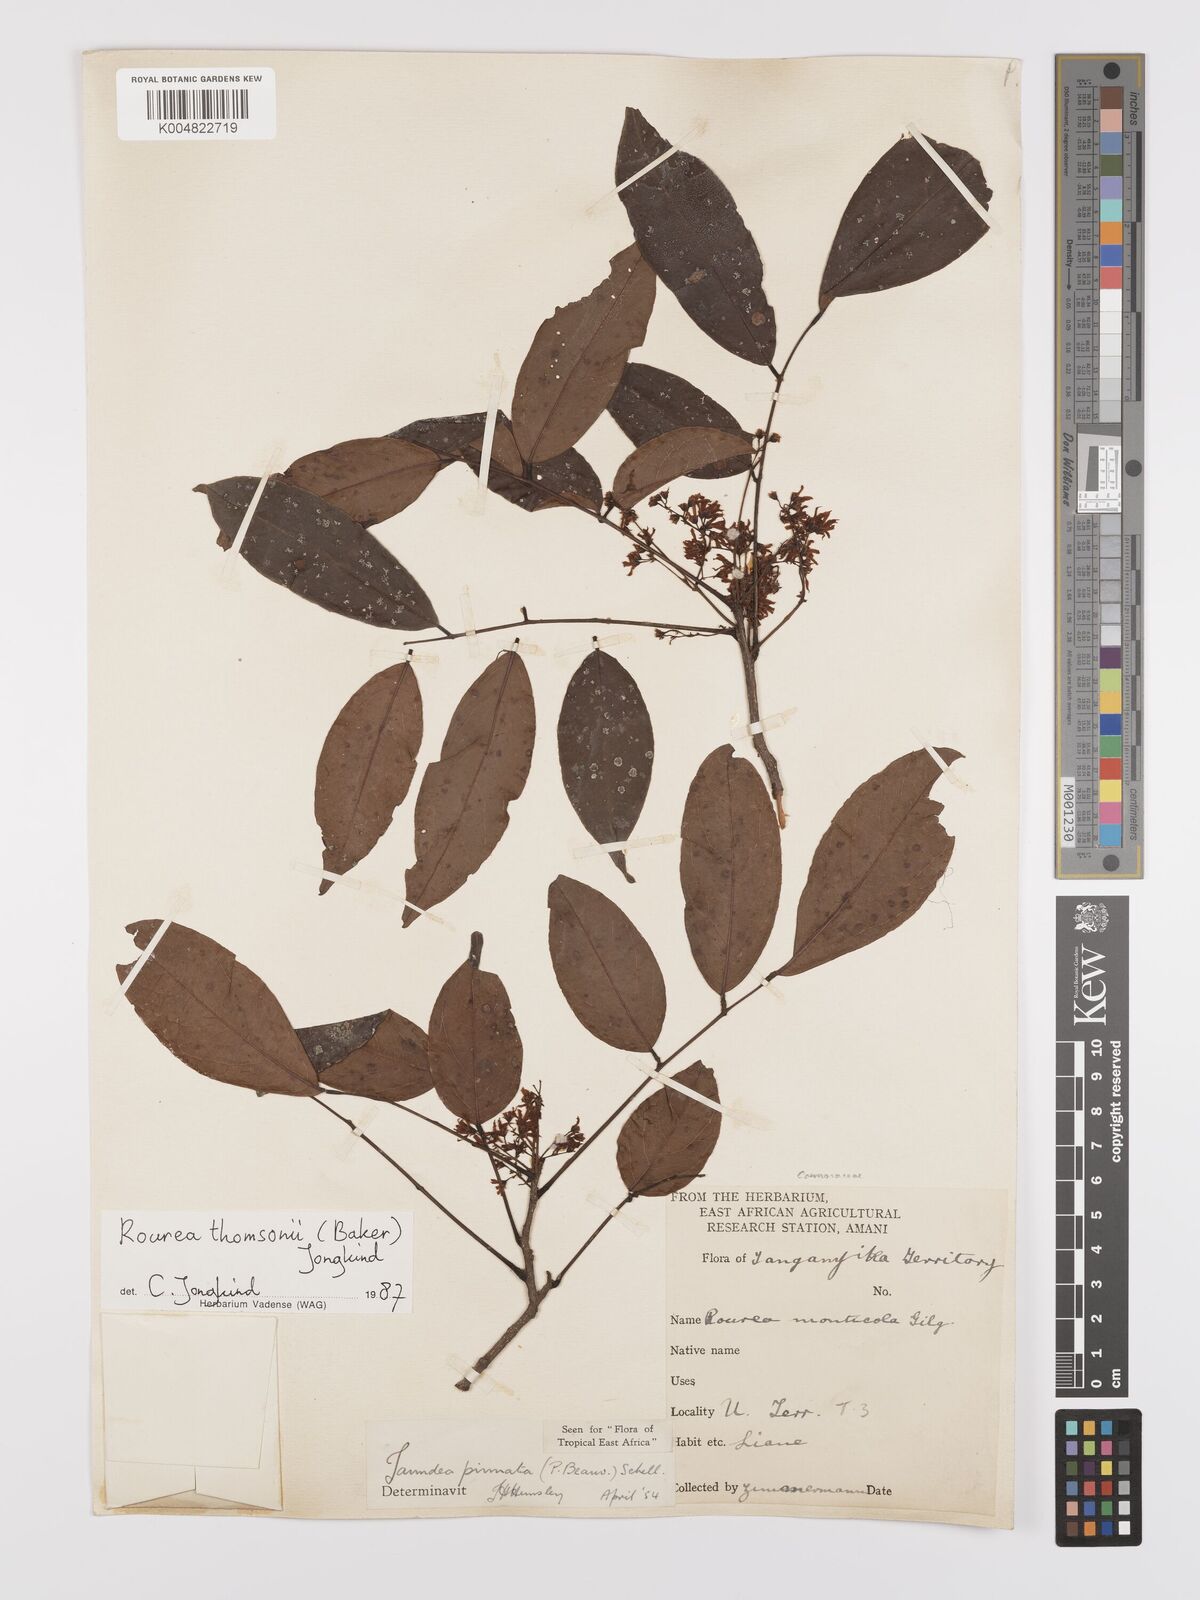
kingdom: Plantae
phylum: Tracheophyta
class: Magnoliopsida
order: Oxalidales
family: Connaraceae
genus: Rourea
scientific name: Rourea pinnata
